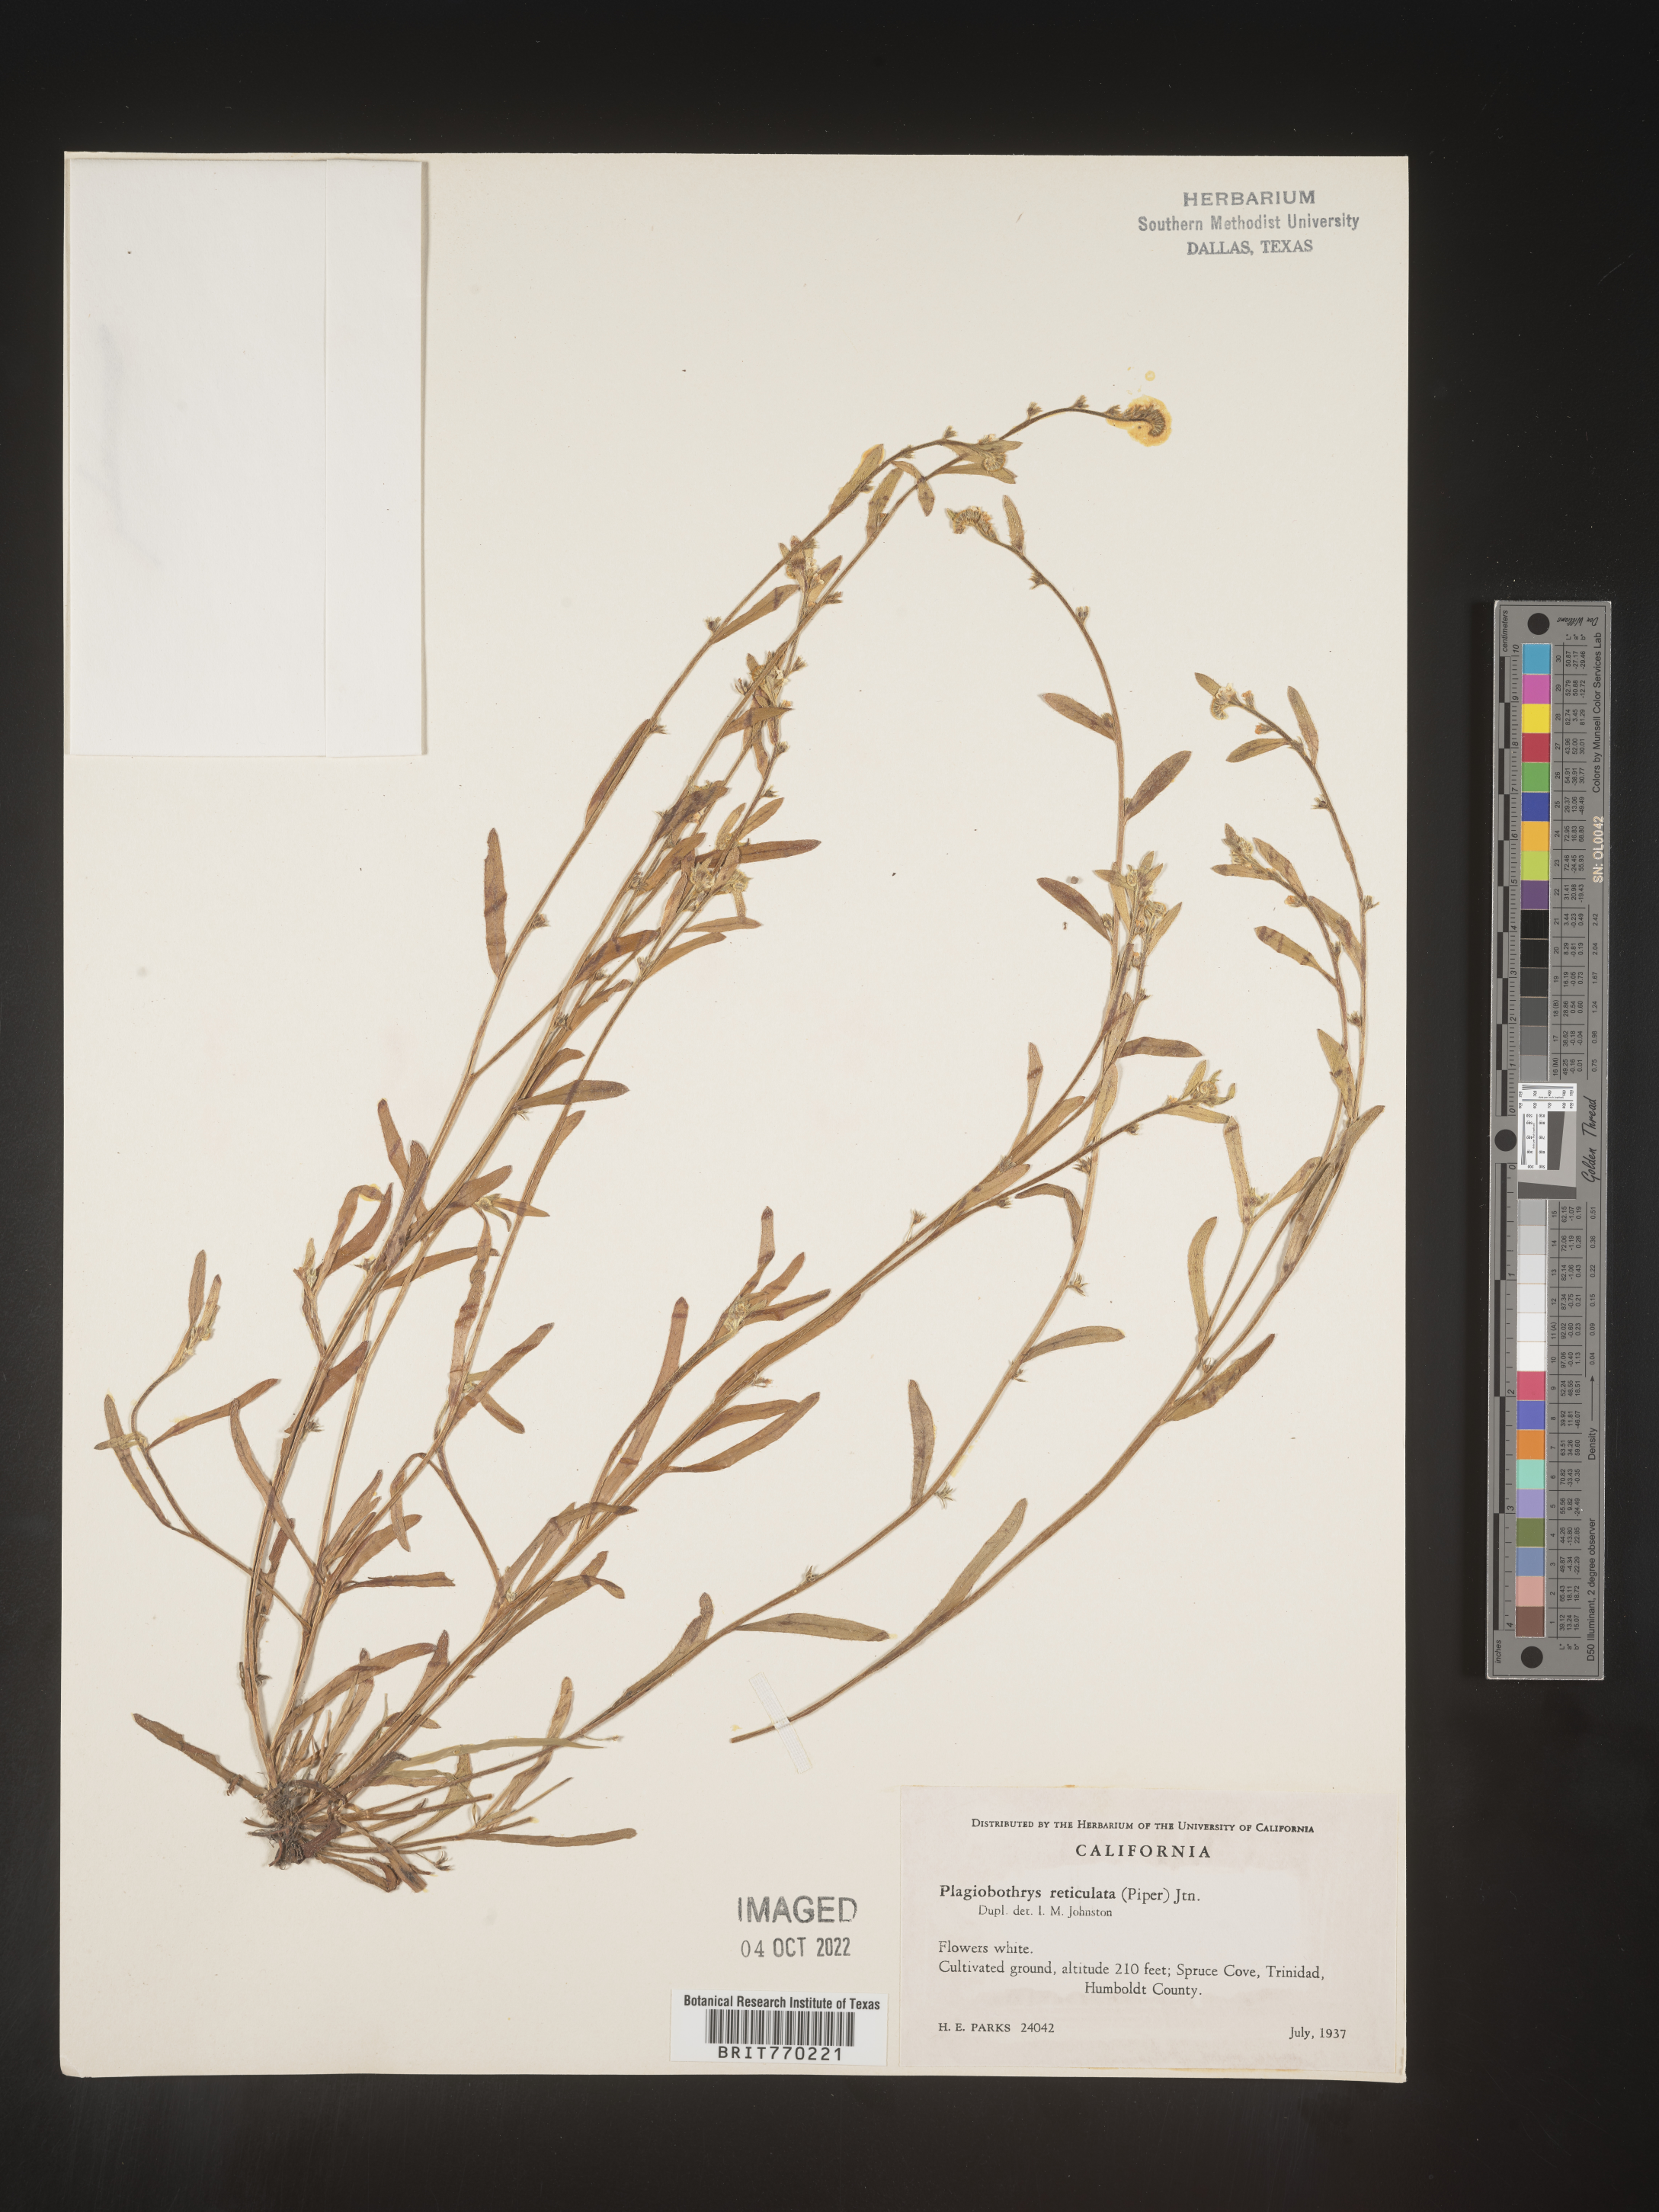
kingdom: Plantae
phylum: Tracheophyta
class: Magnoliopsida
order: Boraginales
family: Boraginaceae
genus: Plagiobothrys
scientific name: Plagiobothrys
